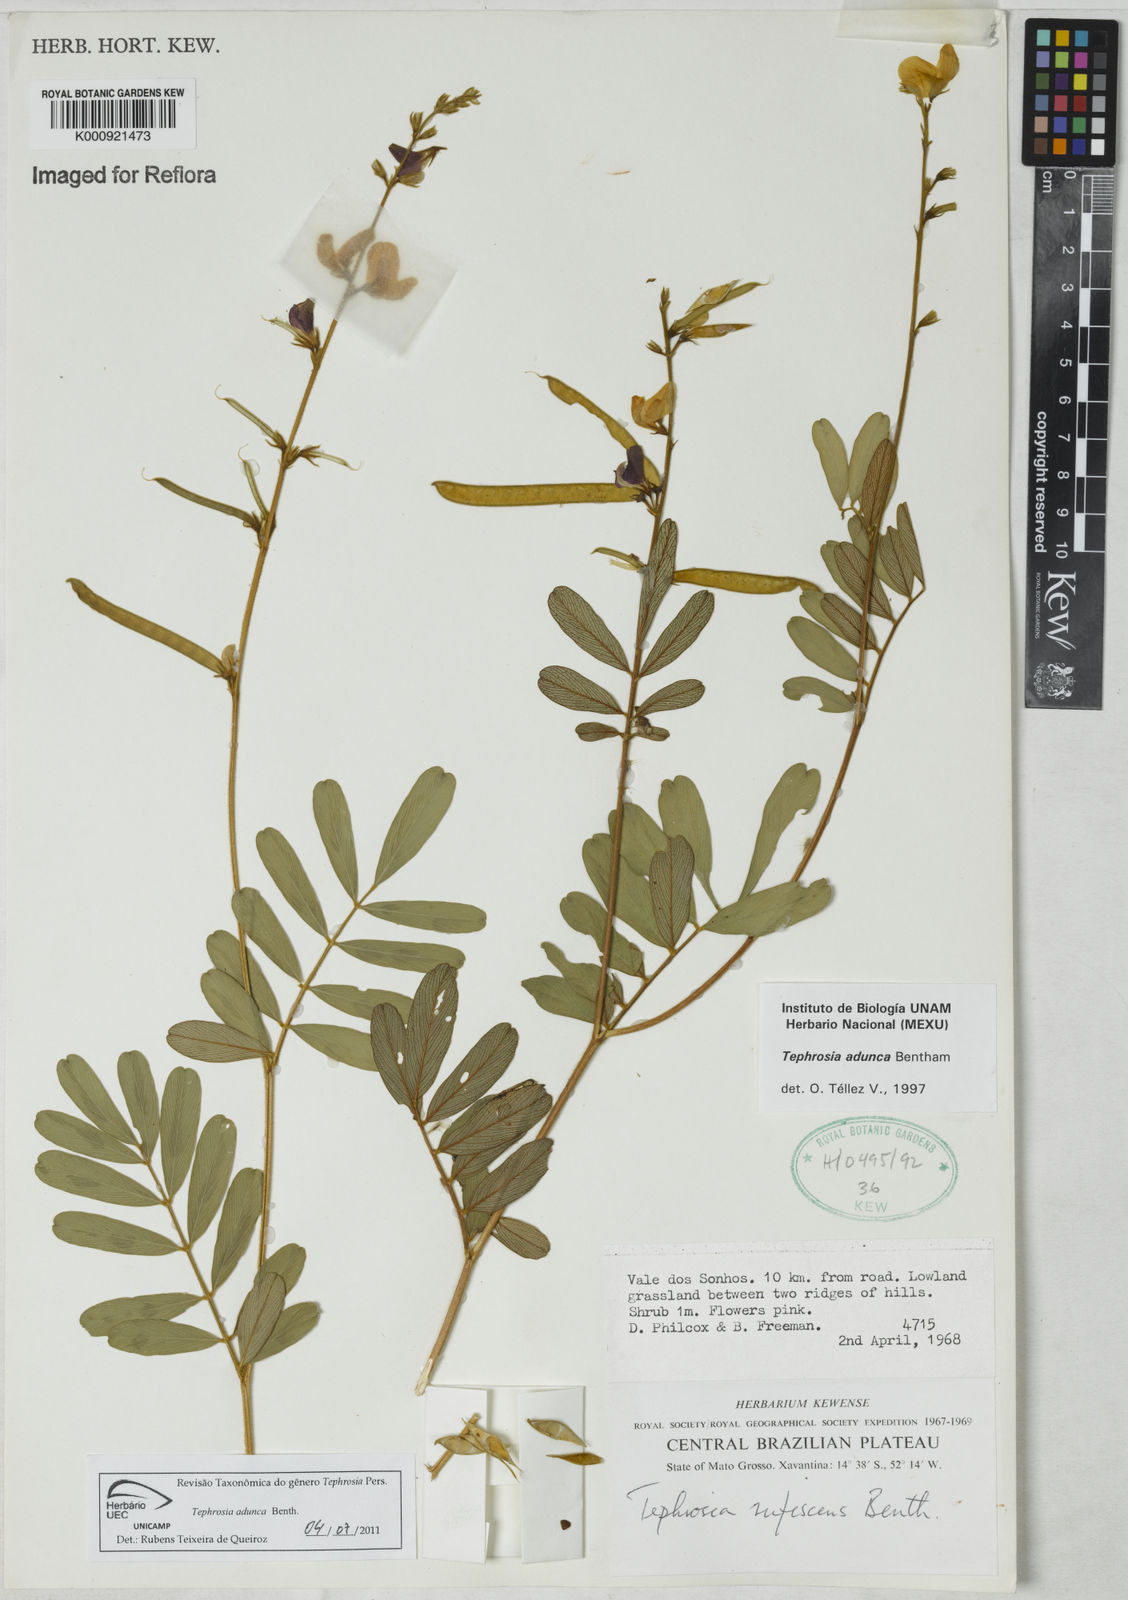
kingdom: Plantae
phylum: Tracheophyta
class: Magnoliopsida
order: Fabales
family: Fabaceae
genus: Tephrosia
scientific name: Tephrosia adunca
